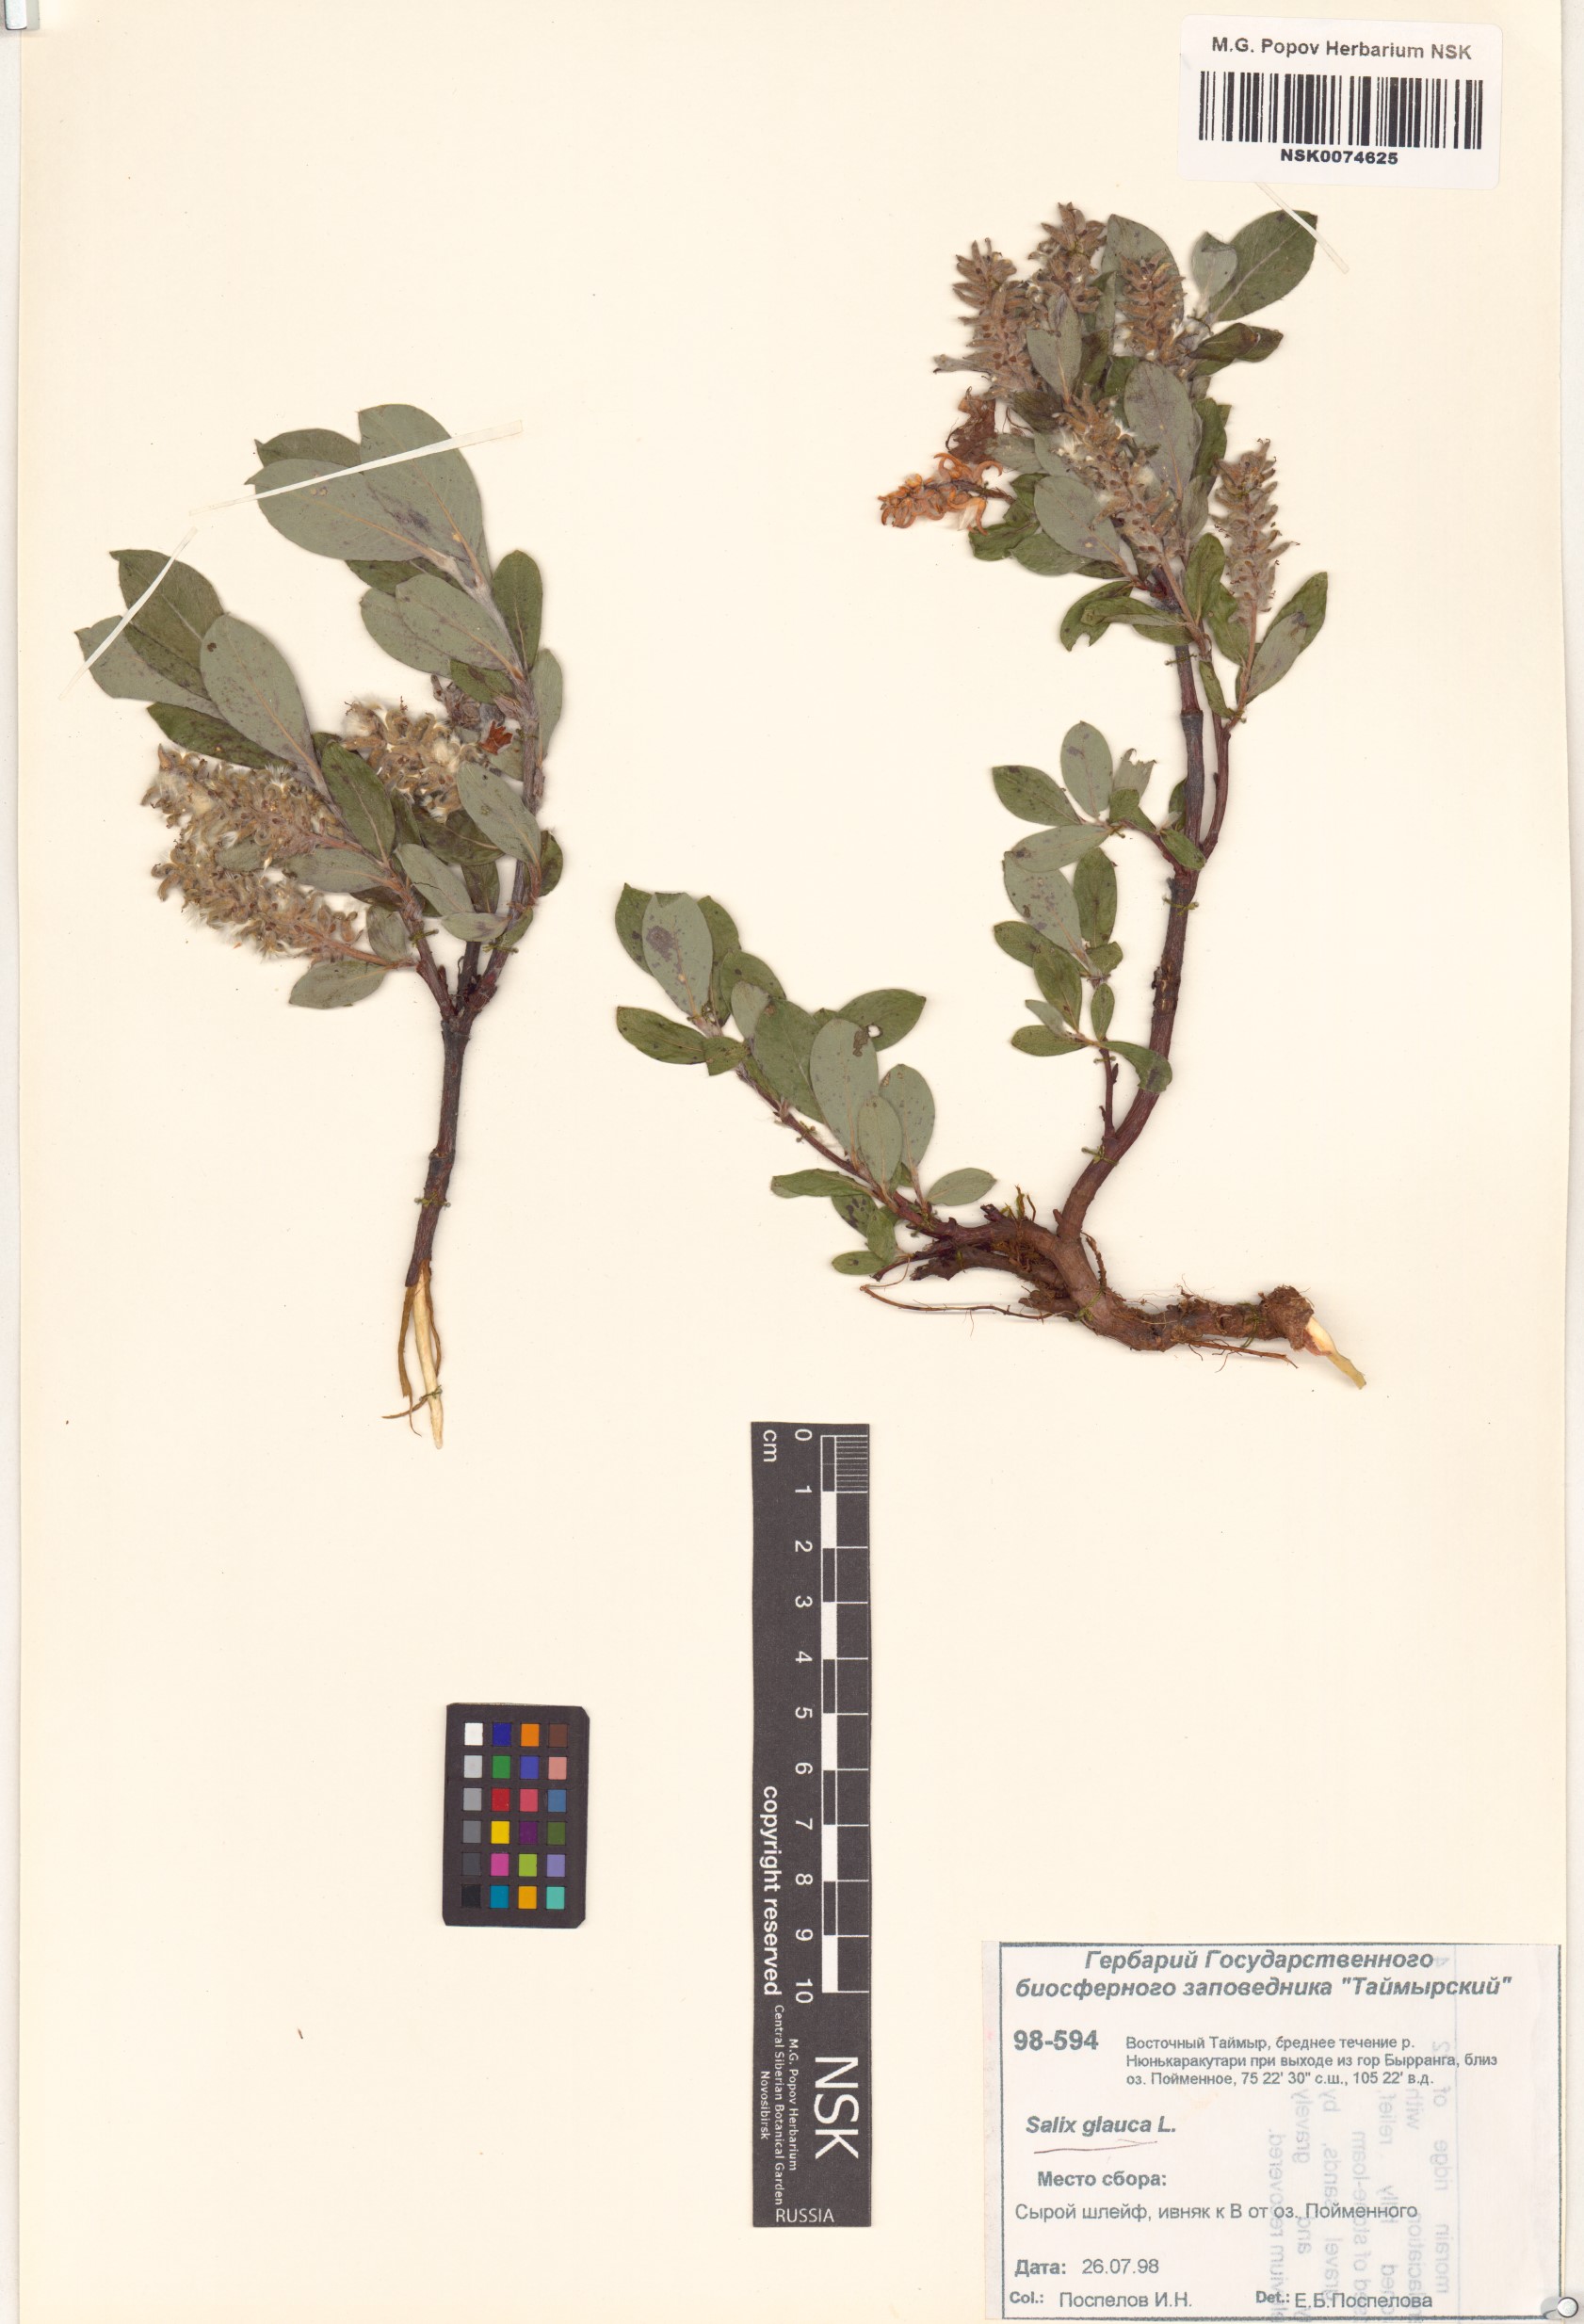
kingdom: Plantae
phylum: Tracheophyta
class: Magnoliopsida
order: Malpighiales
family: Salicaceae
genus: Salix
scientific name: Salix glauca
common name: Glaucous willow
